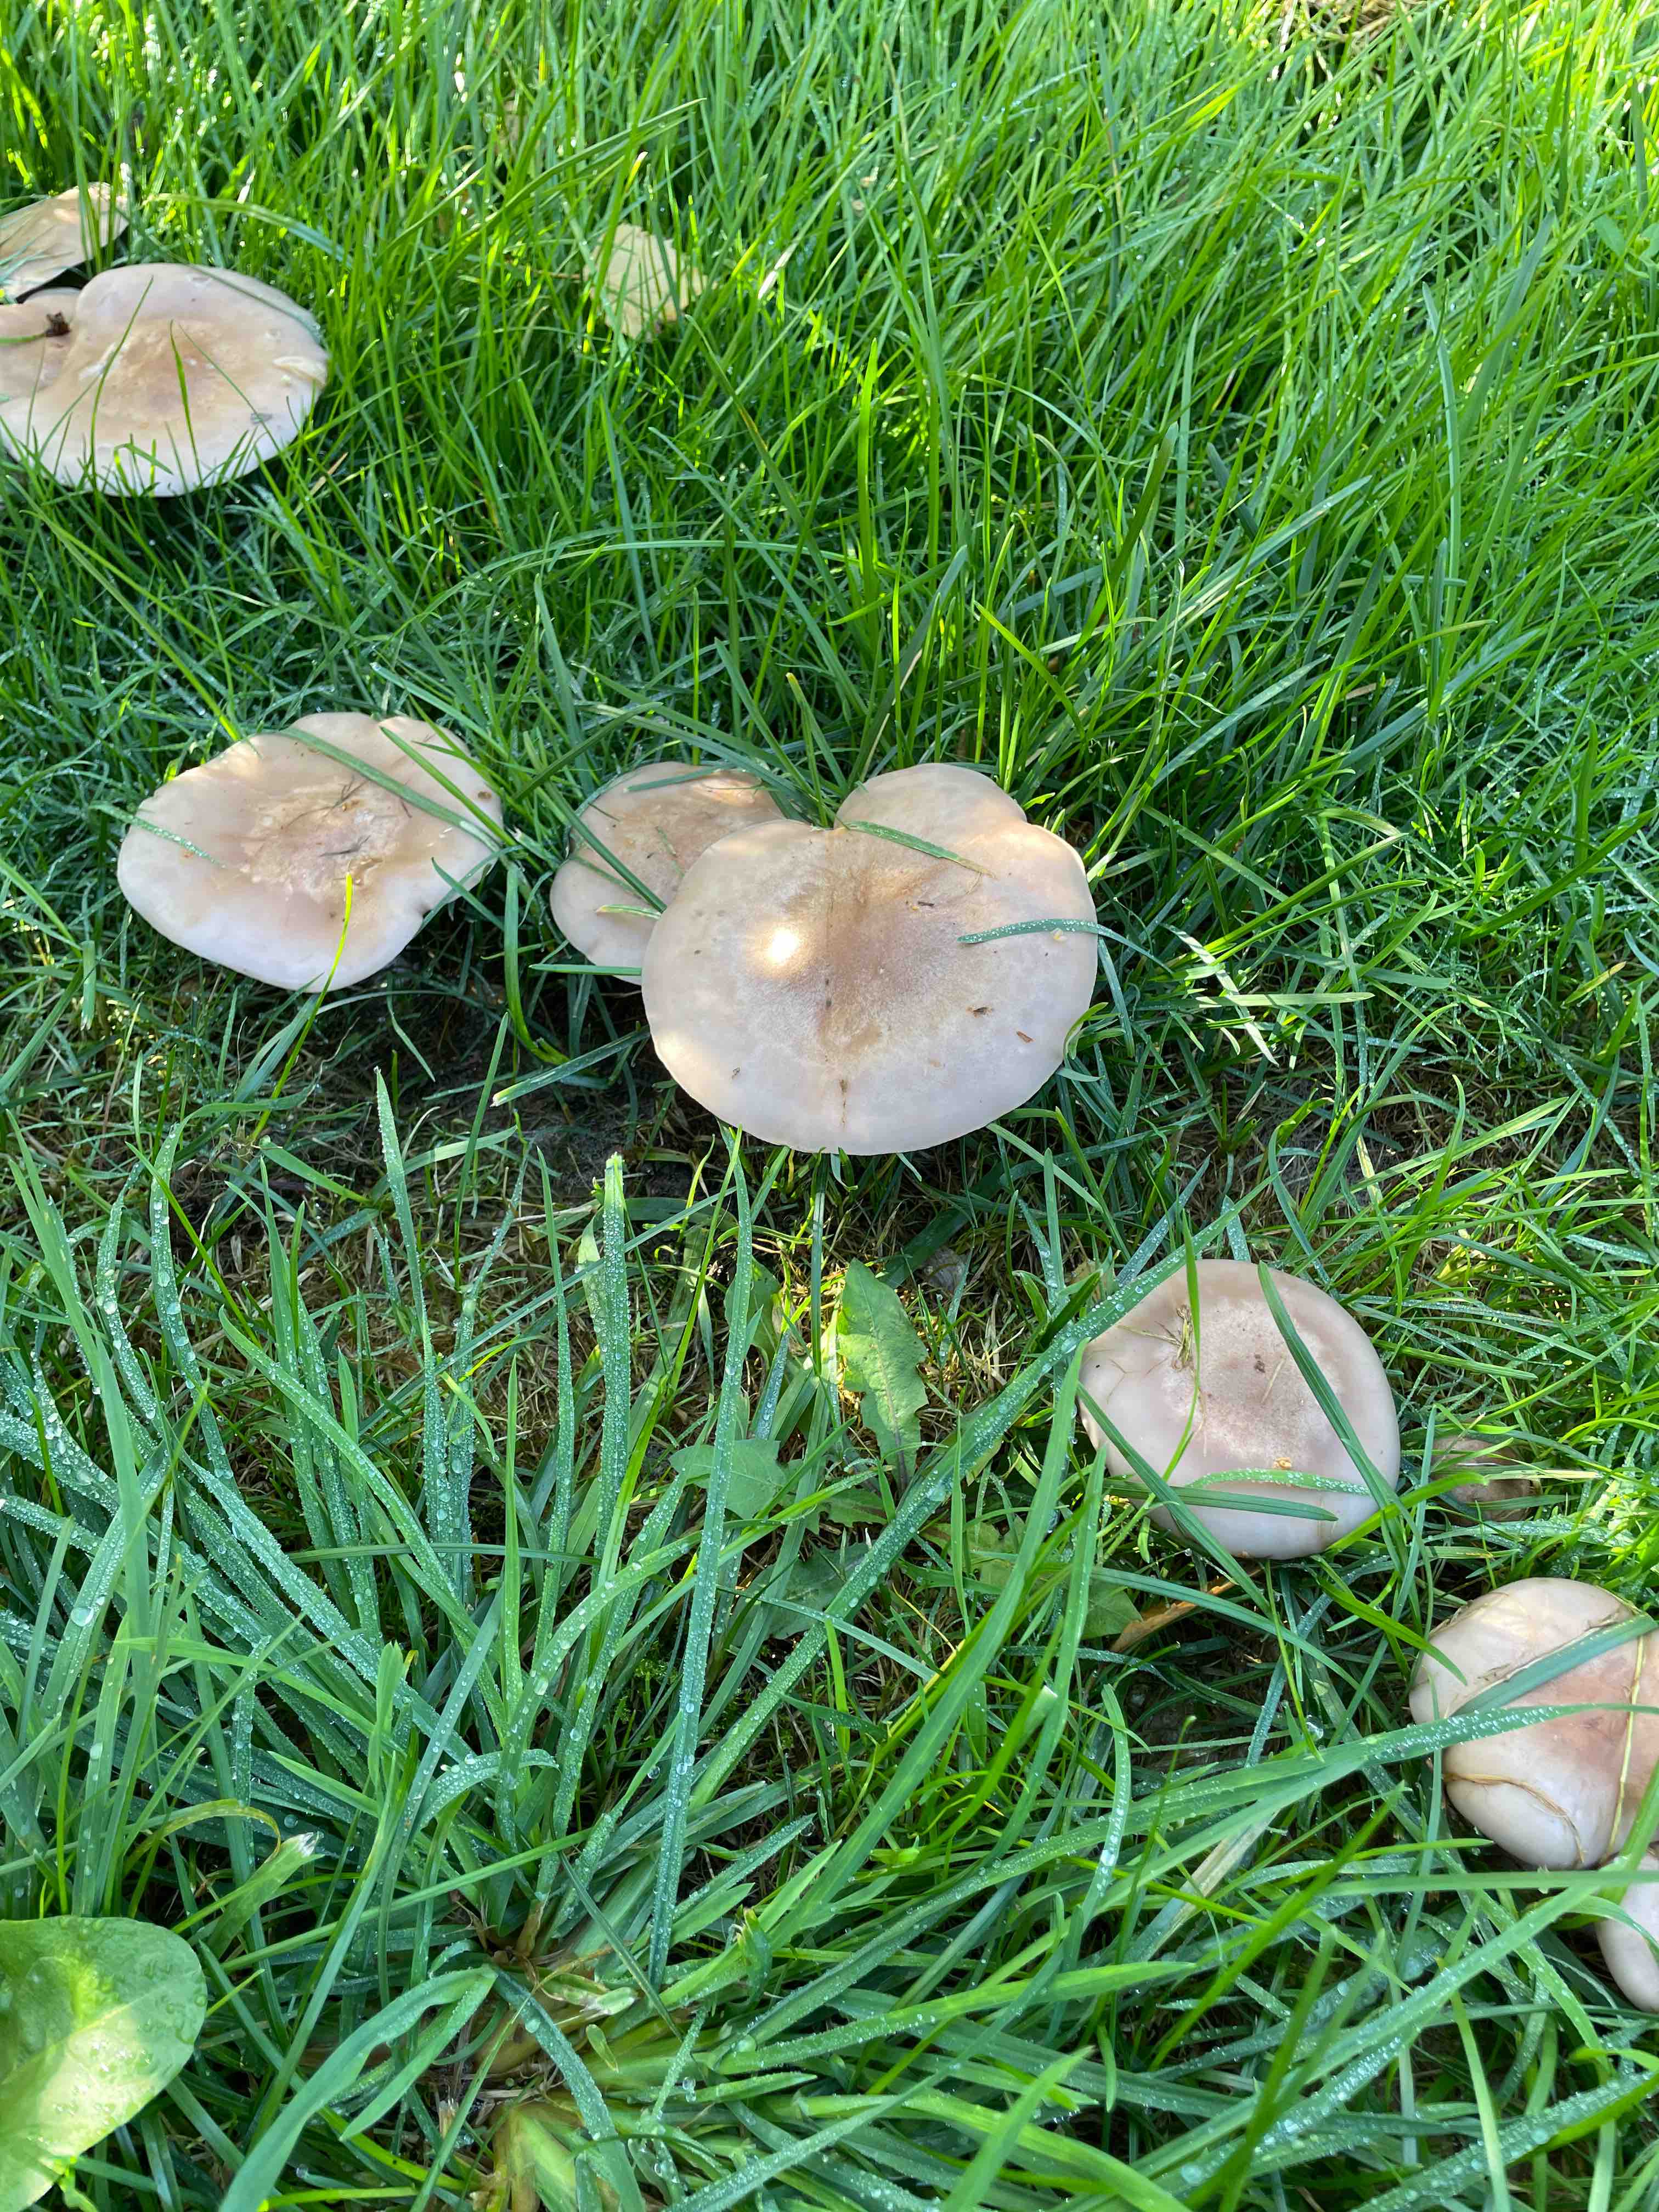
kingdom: Fungi
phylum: Basidiomycota
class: Agaricomycetes
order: Agaricales
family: Tricholomataceae
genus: Lepista
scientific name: Lepista
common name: hekseringshat
